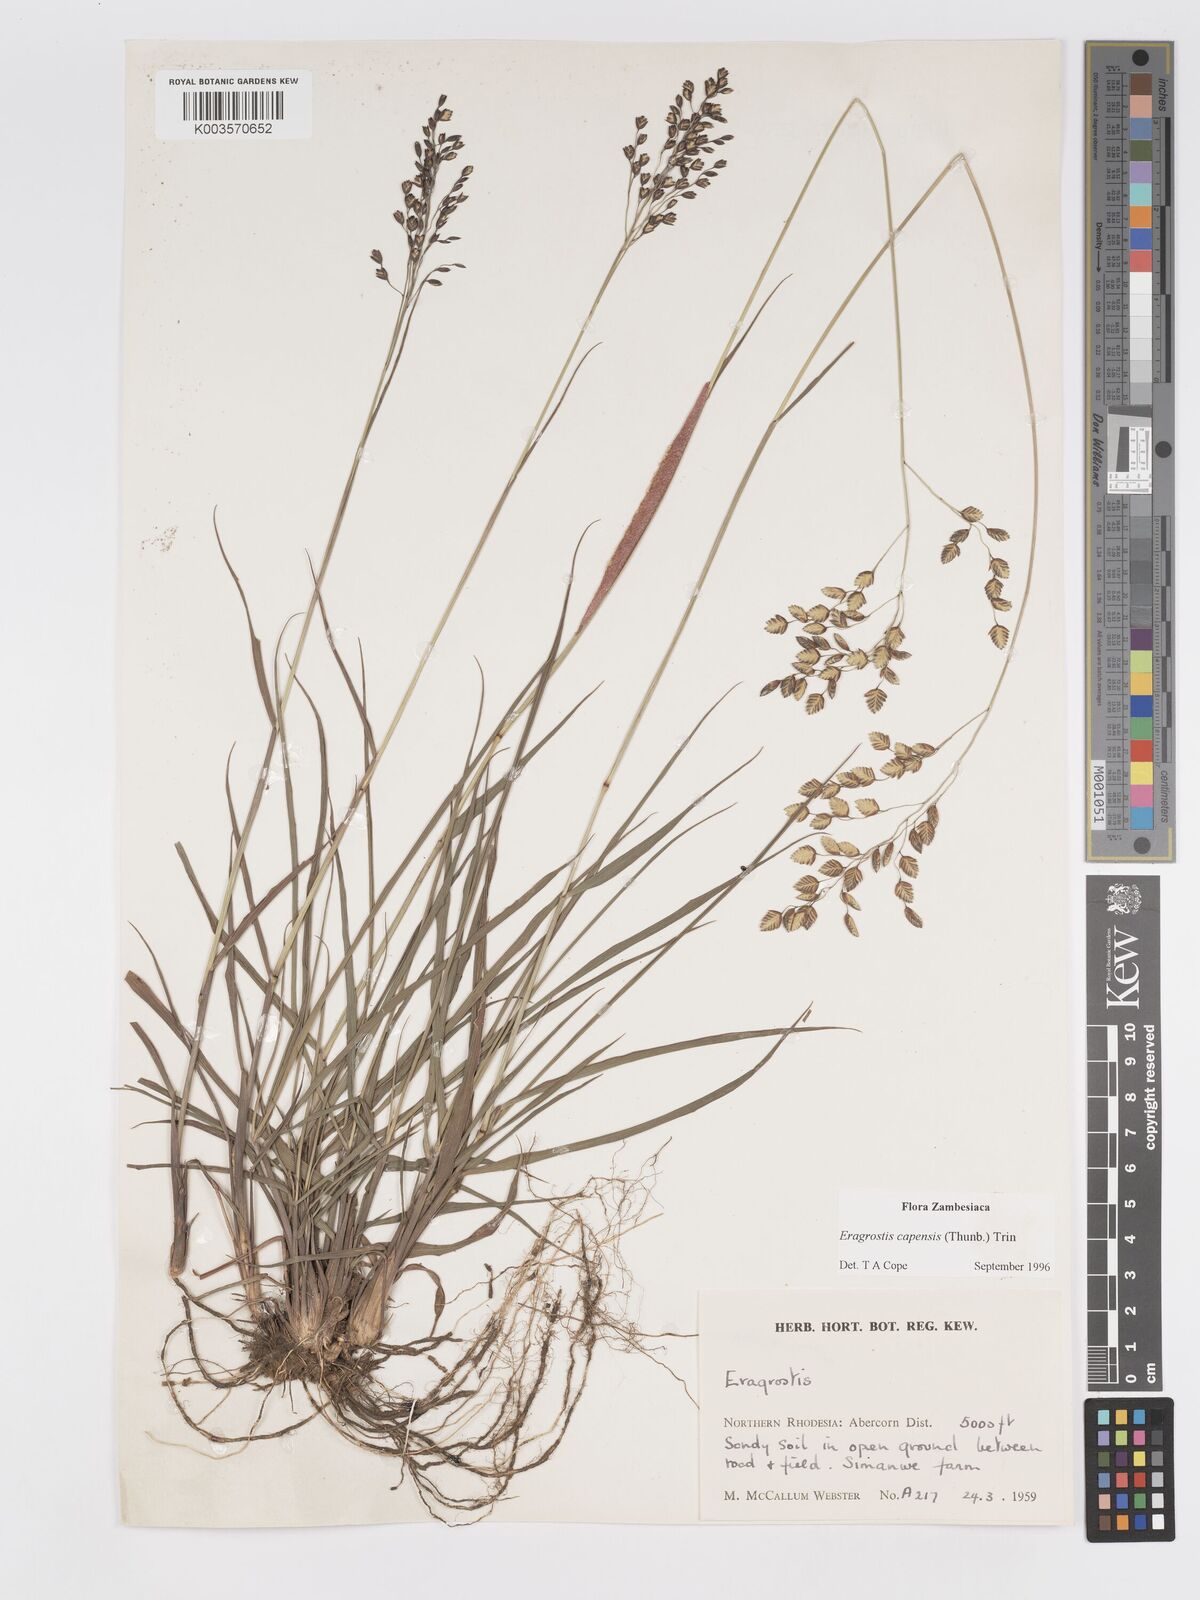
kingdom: Plantae
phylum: Tracheophyta
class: Liliopsida
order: Poales
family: Poaceae
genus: Eragrostis
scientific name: Eragrostis capensis
